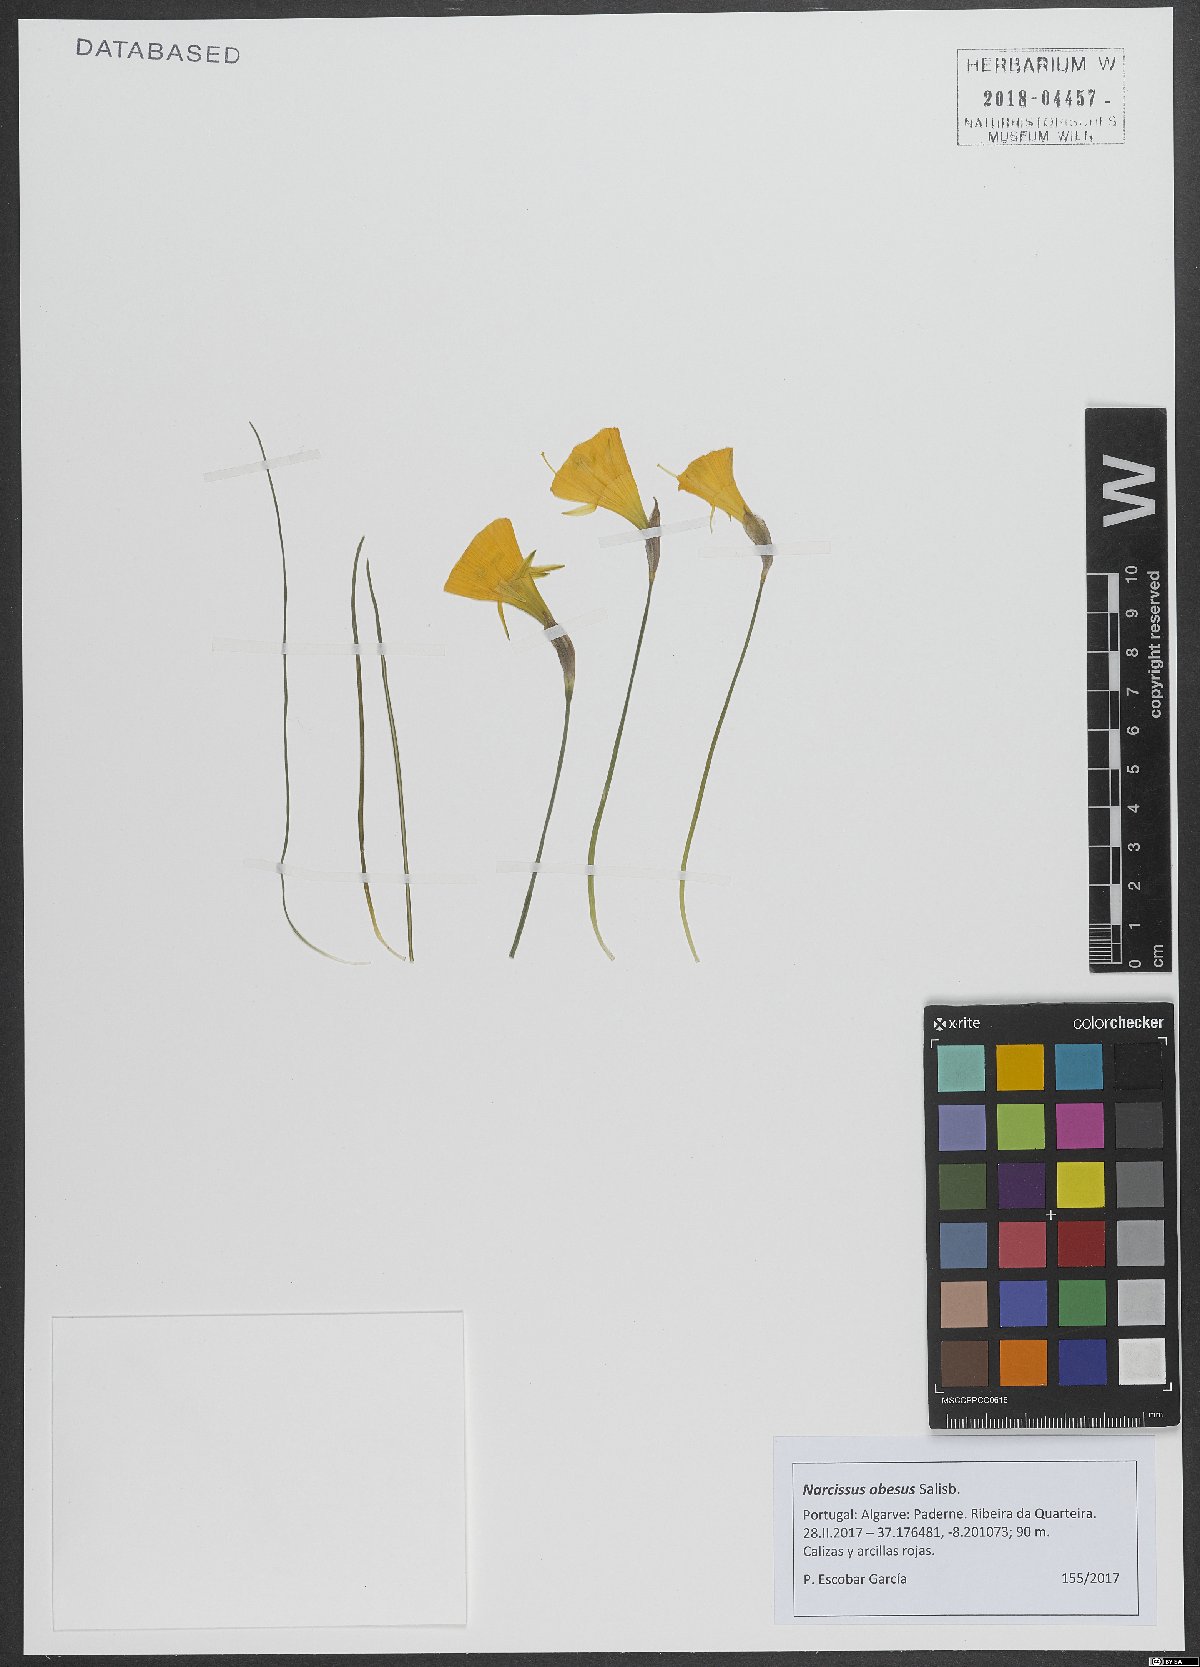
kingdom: Plantae
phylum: Tracheophyta
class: Liliopsida
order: Asparagales
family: Amaryllidaceae
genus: Narcissus
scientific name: Narcissus obesus
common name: Hoop petticoat daffodil
